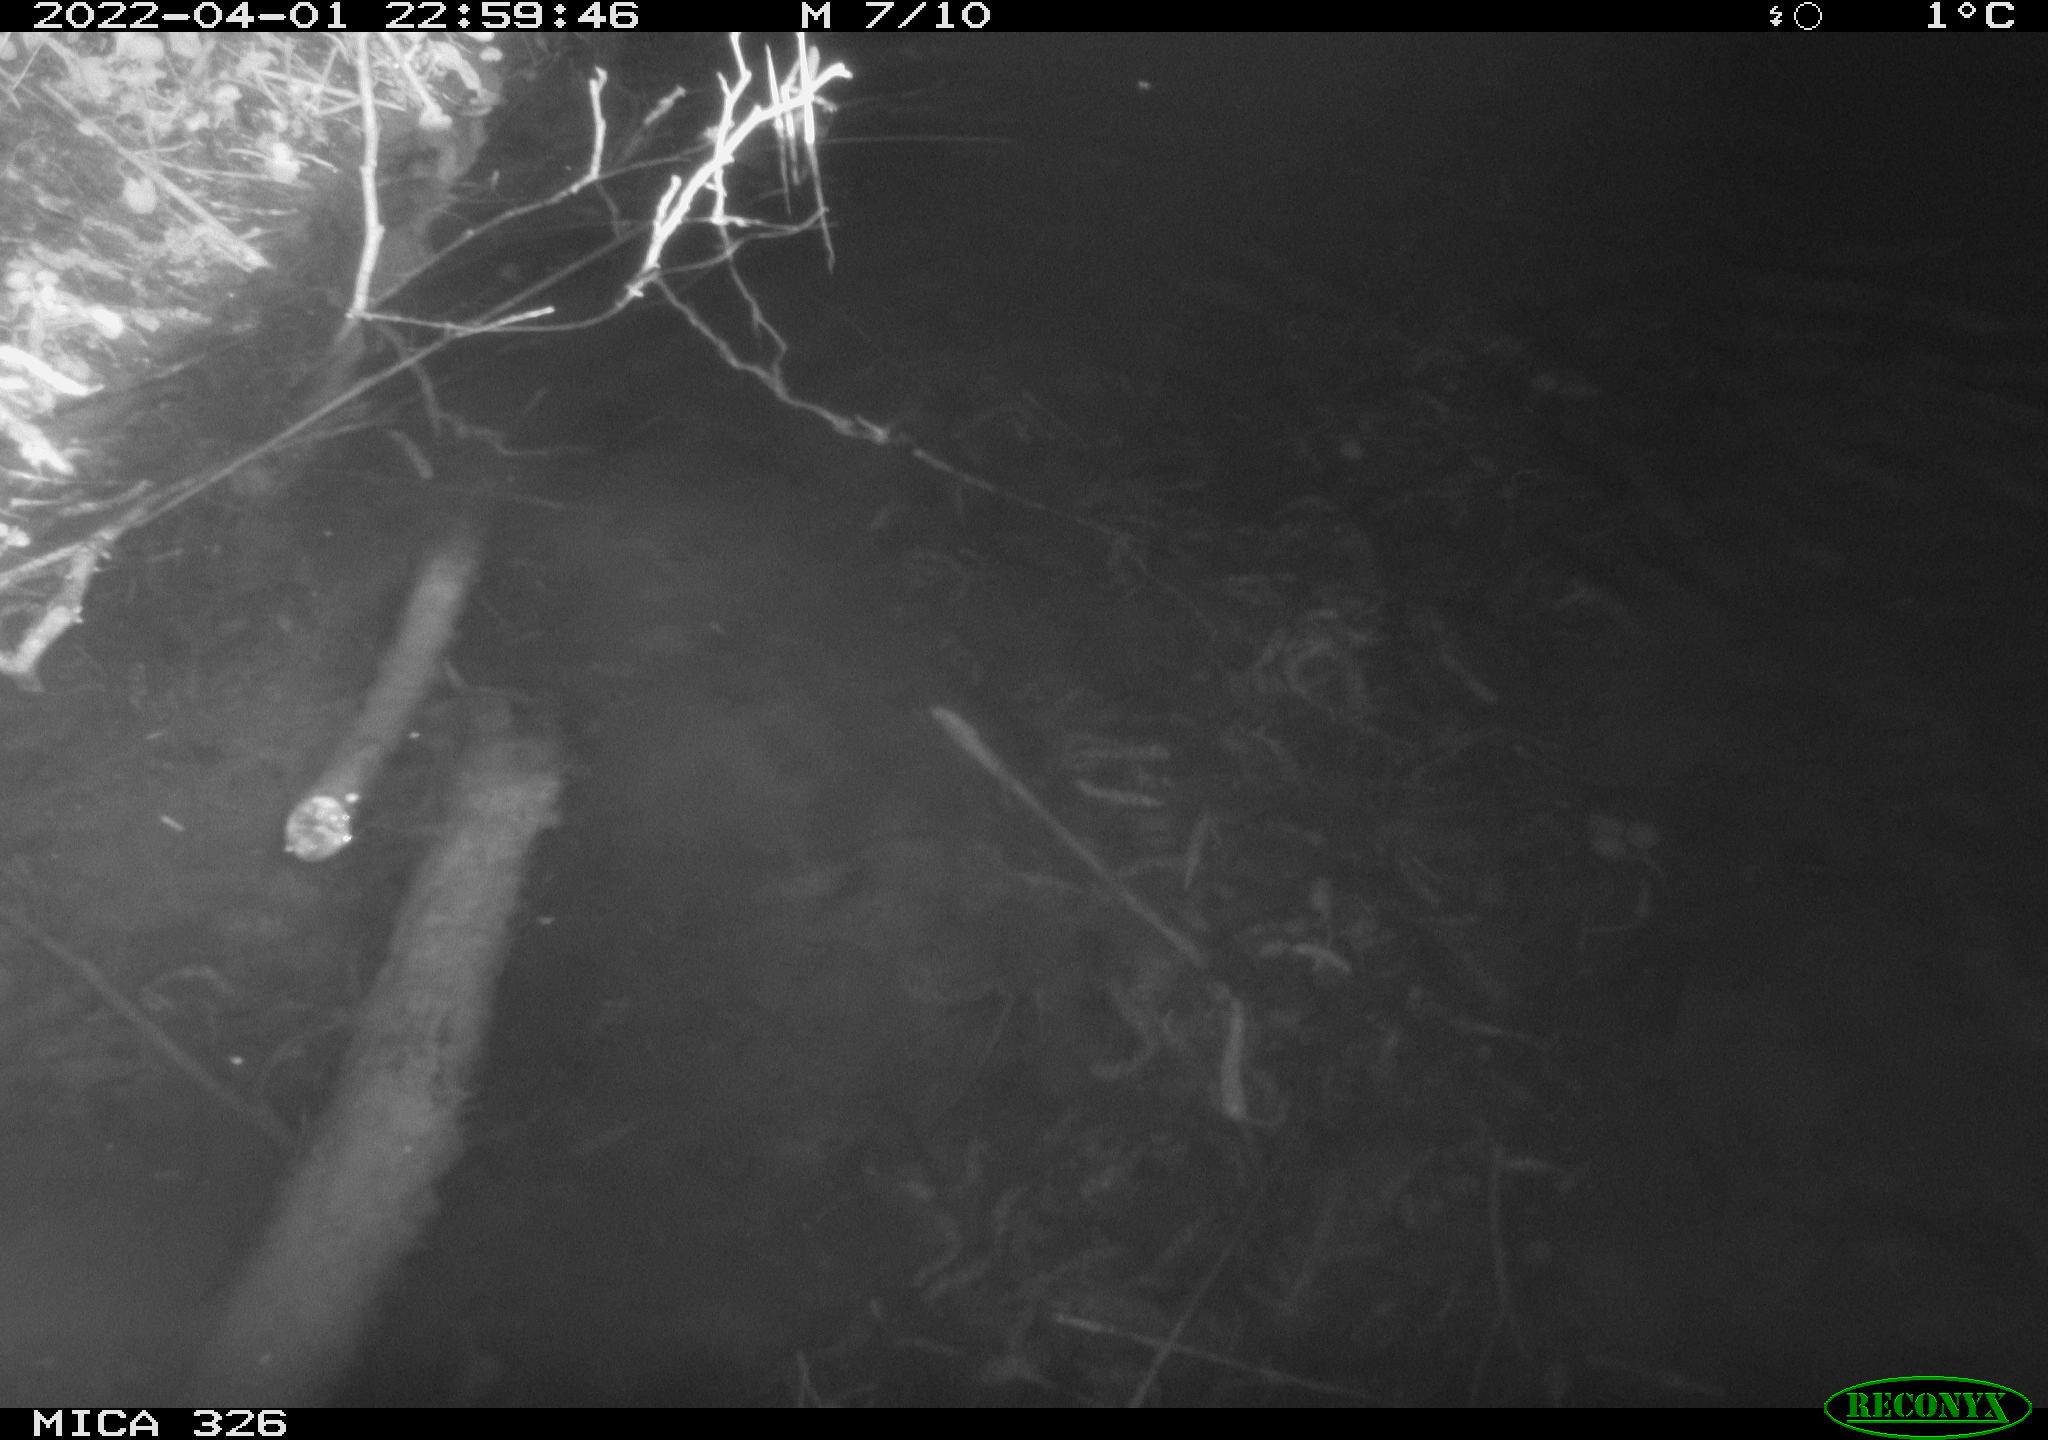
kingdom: Animalia
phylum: Chordata
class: Mammalia
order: Rodentia
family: Muridae
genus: Rattus
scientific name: Rattus norvegicus
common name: Brown rat
